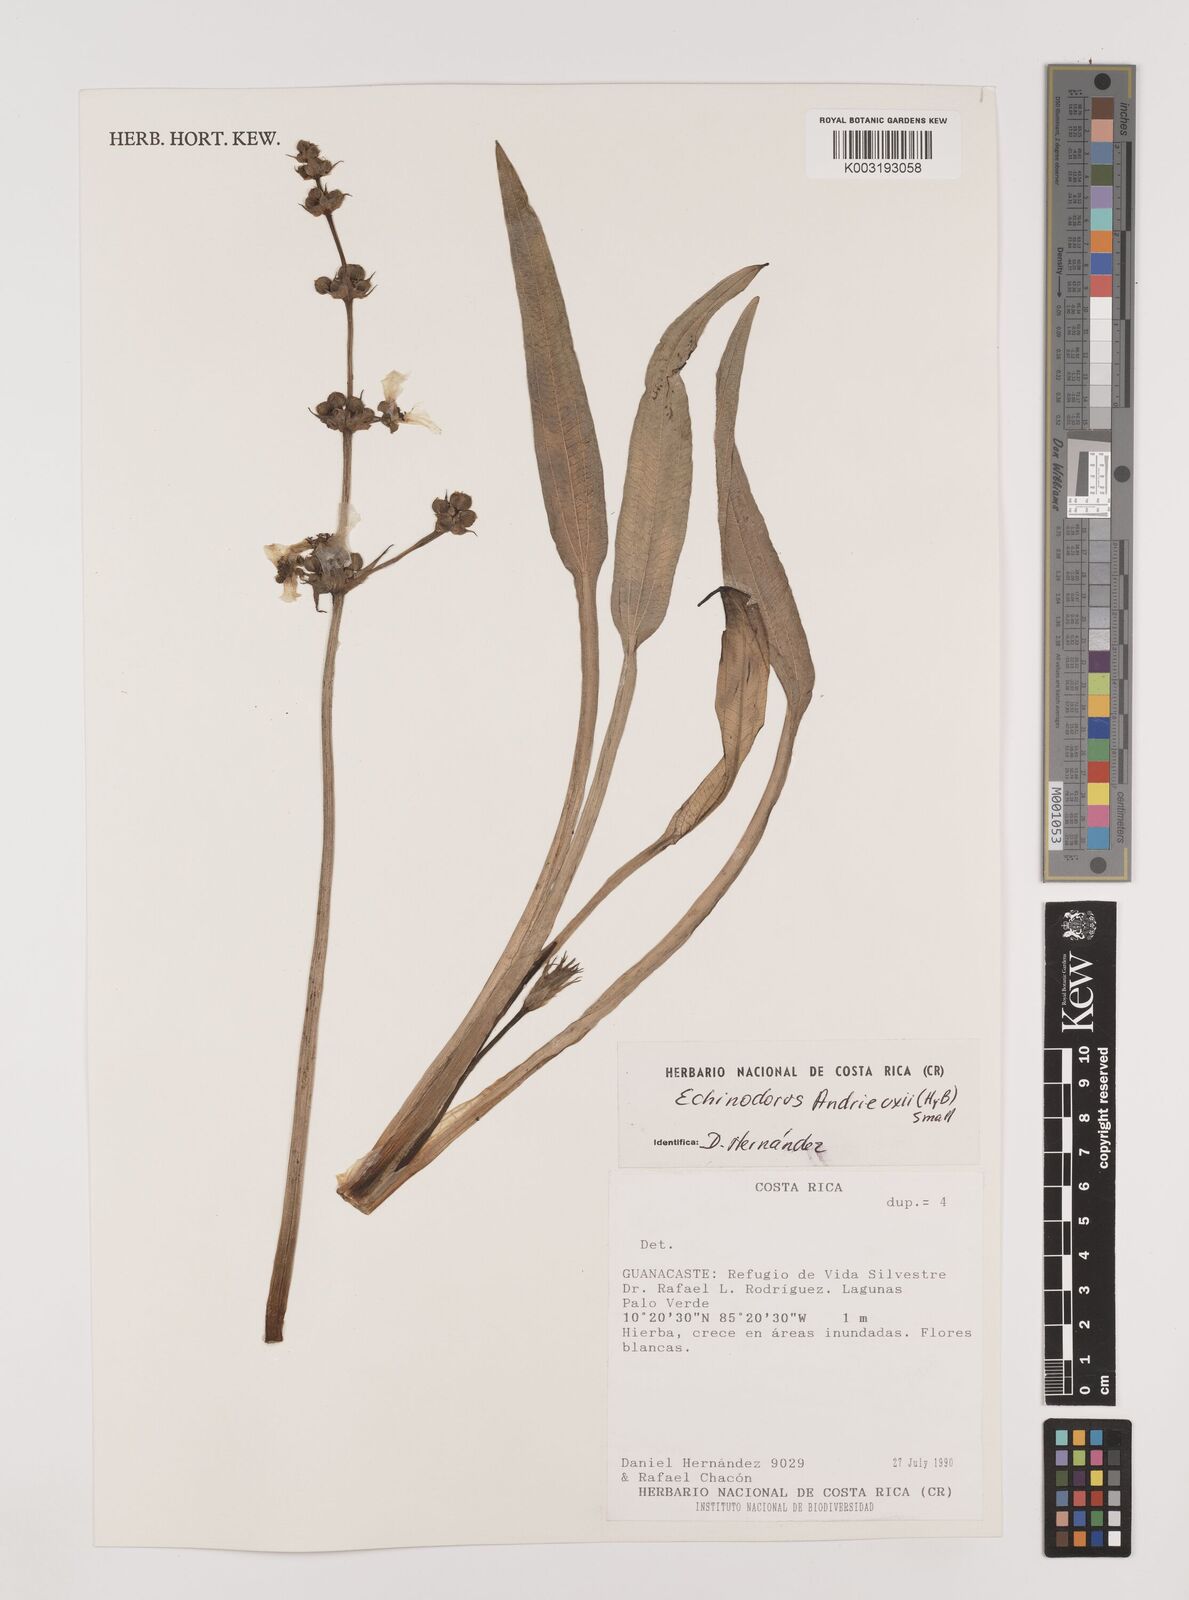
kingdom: Plantae
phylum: Tracheophyta
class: Liliopsida
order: Alismatales
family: Alismataceae
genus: Aquarius
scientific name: Aquarius subulatus
